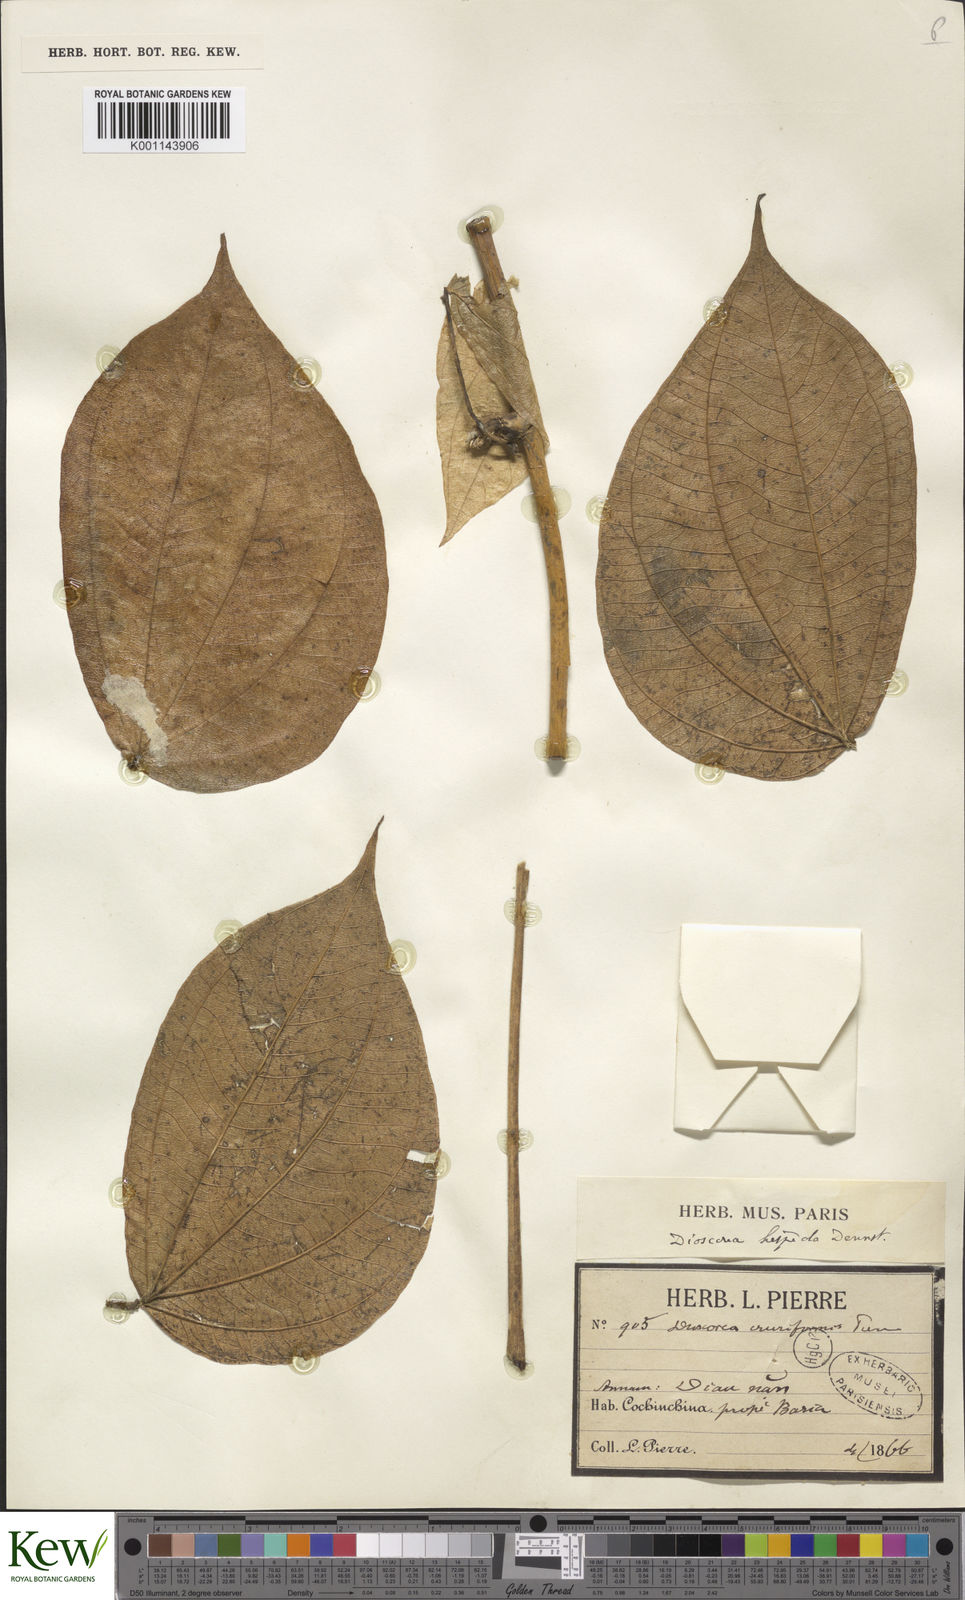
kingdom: Plantae
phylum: Tracheophyta
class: Liliopsida
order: Dioscoreales
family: Dioscoreaceae
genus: Dioscorea
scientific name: Dioscorea hispida
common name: Asiatic bitter yam
